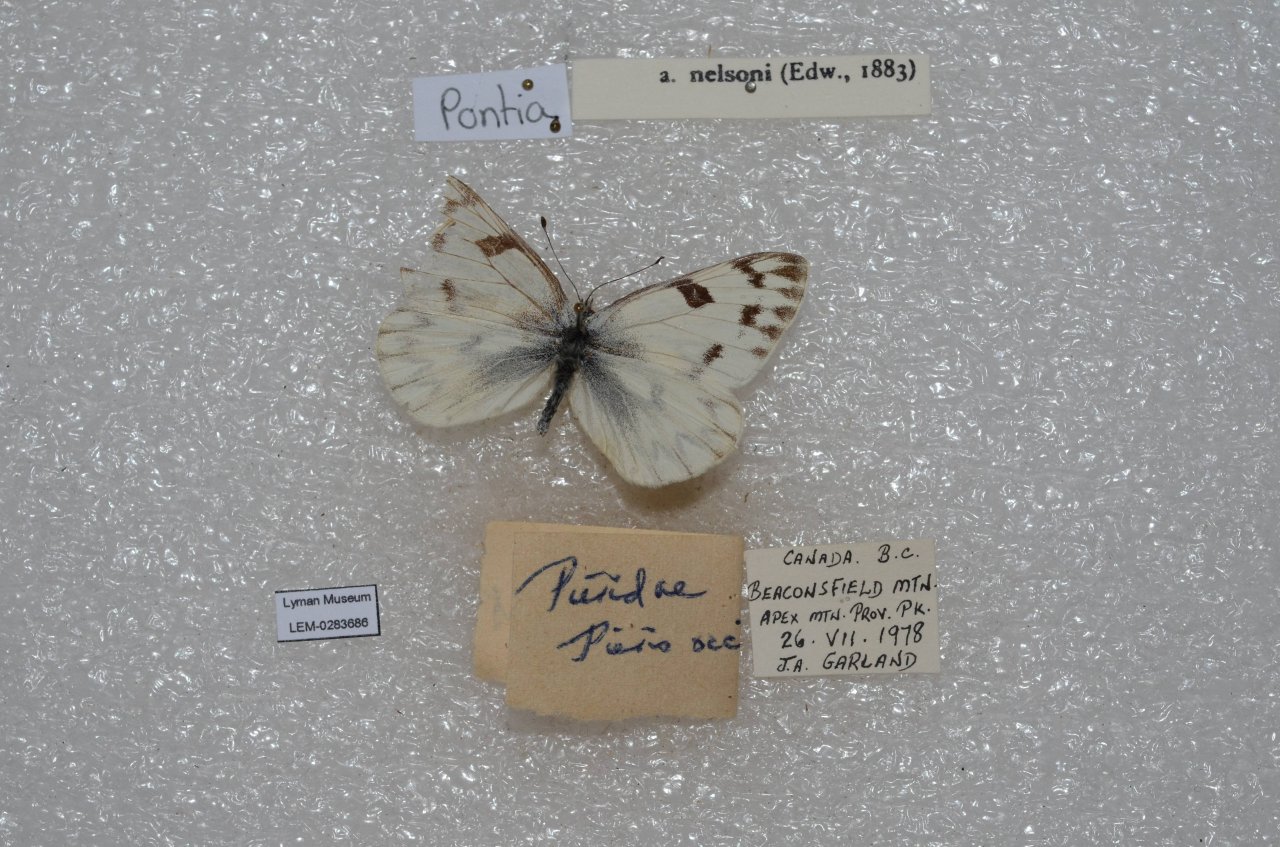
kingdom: Animalia
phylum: Arthropoda
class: Insecta
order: Lepidoptera
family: Pieridae
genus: Pontia
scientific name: Pontia occidentalis
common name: Western White
